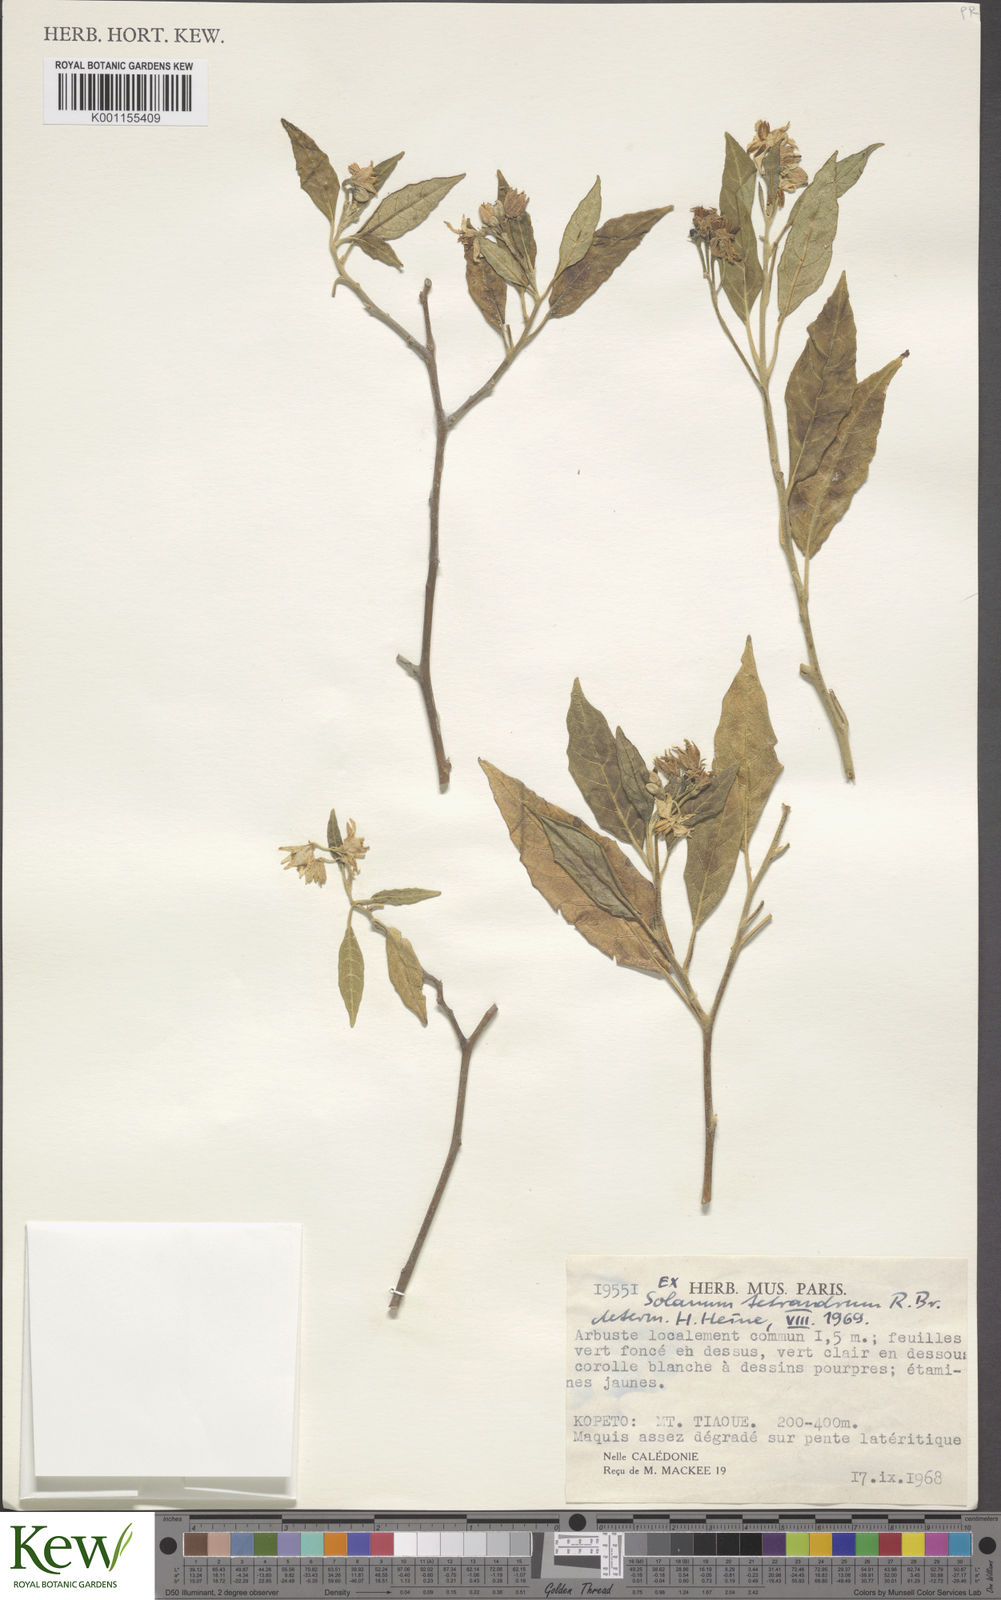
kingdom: Plantae
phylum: Tracheophyta
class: Magnoliopsida
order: Solanales
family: Solanaceae
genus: Solanum
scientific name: Solanum tetrandrum
